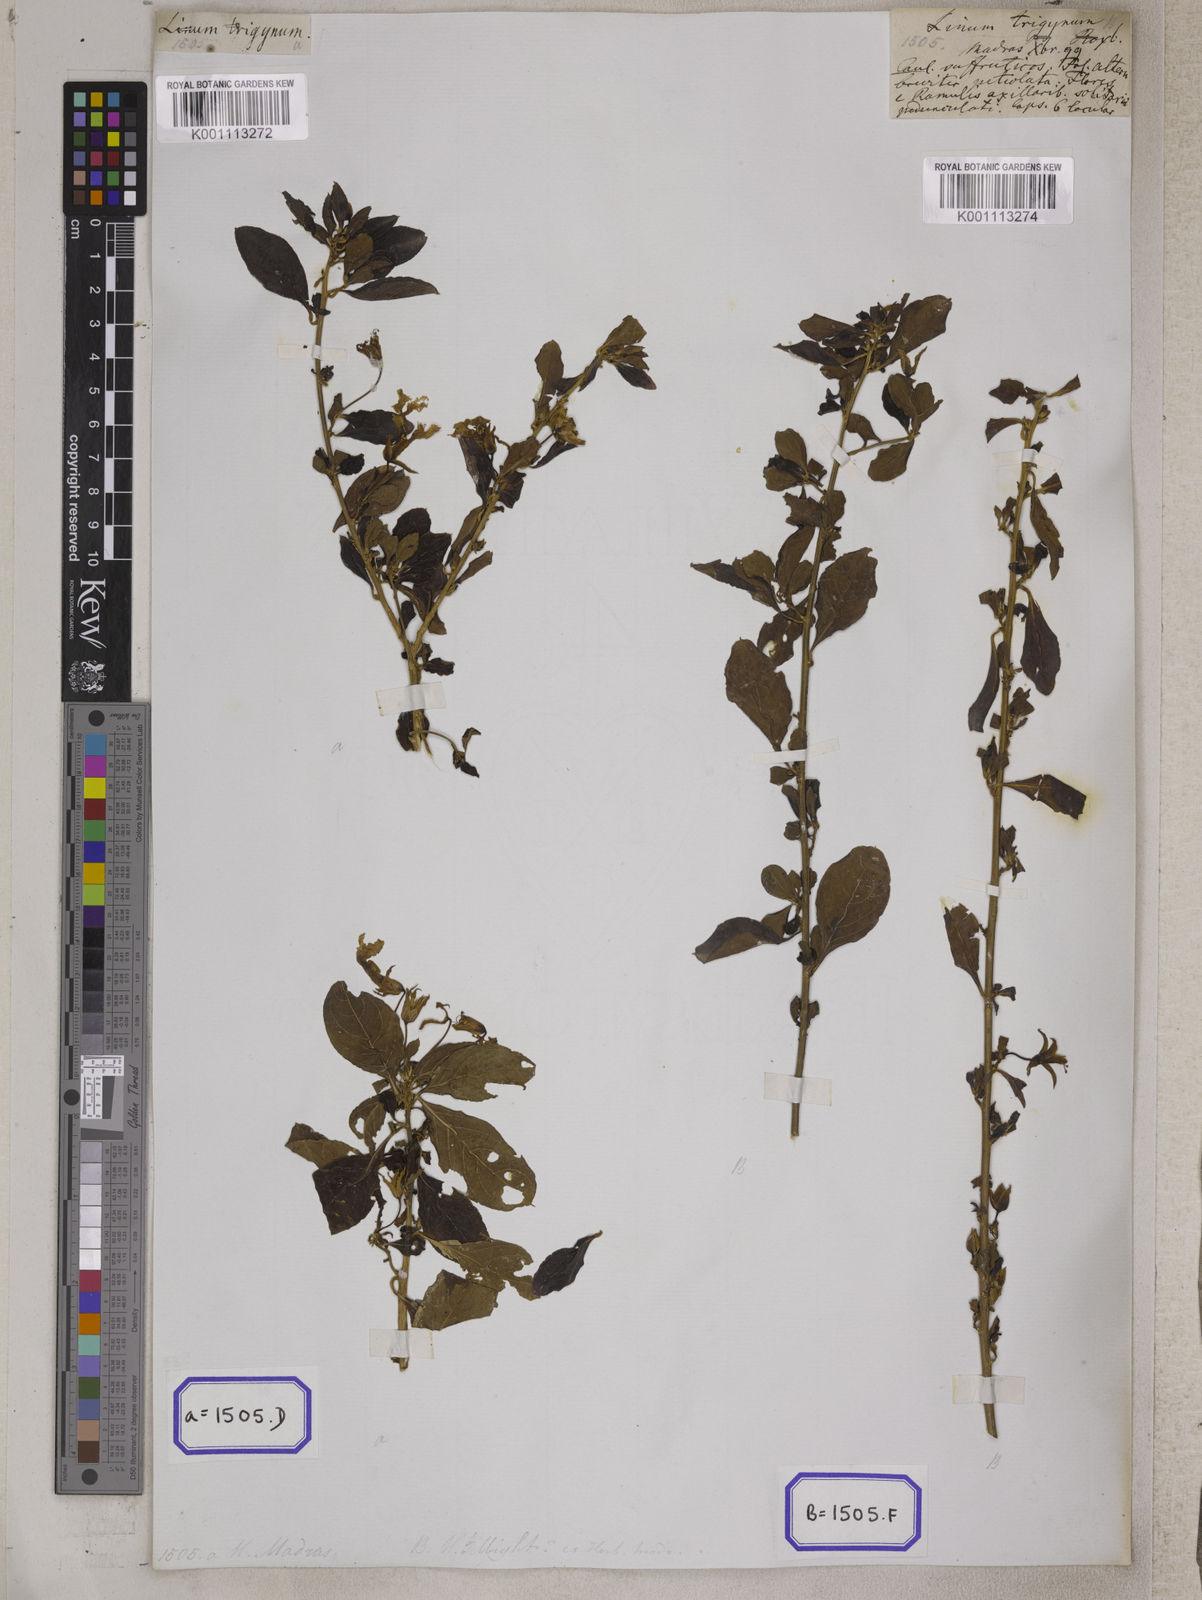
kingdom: Plantae
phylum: Tracheophyta
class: Magnoliopsida
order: Malpighiales
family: Linaceae
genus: Linum
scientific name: Linum
